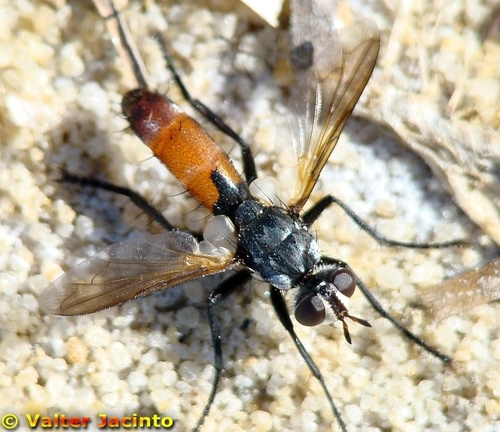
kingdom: Animalia
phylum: Arthropoda
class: Insecta
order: Diptera
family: Tachinidae
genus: Cylindromyia
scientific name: Cylindromyia intermedia
